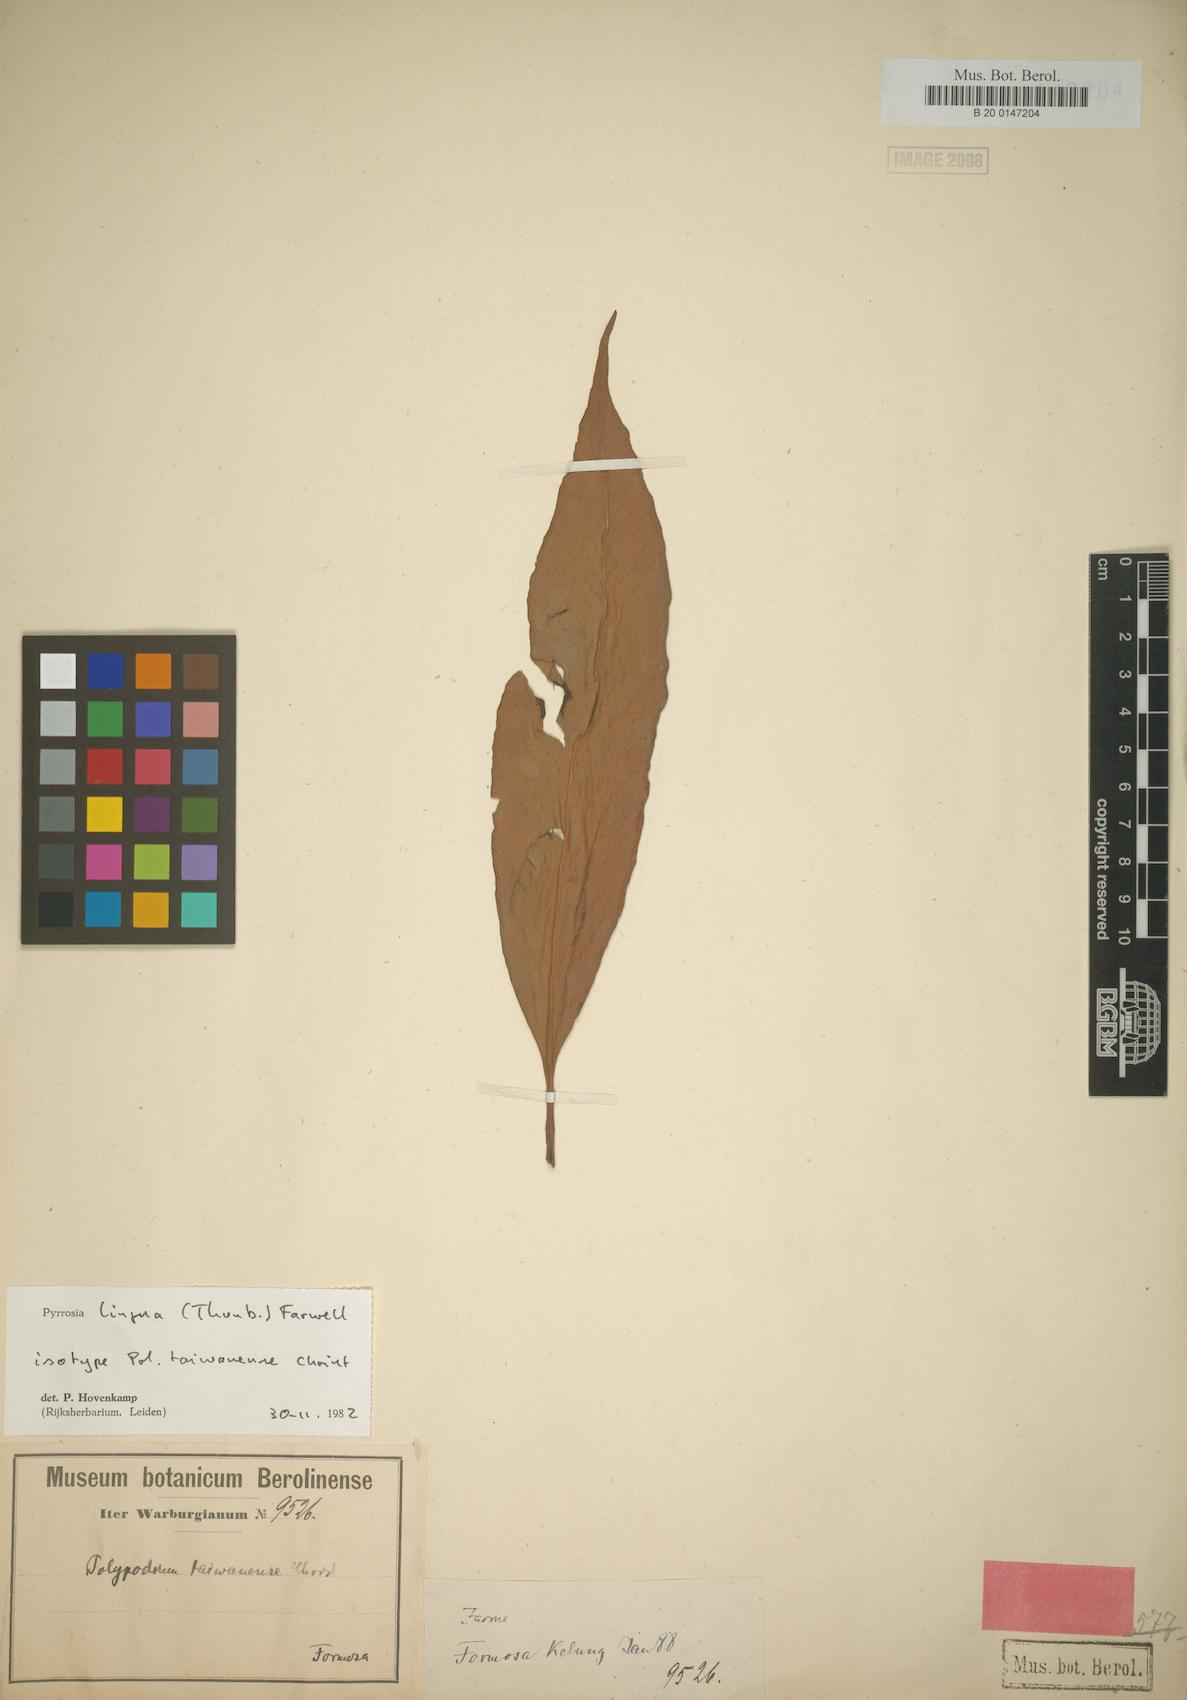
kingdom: Plantae
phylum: Tracheophyta
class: Polypodiopsida
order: Polypodiales
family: Polypodiaceae
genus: Pyrrosia
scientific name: Pyrrosia lingua
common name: Felt fern
